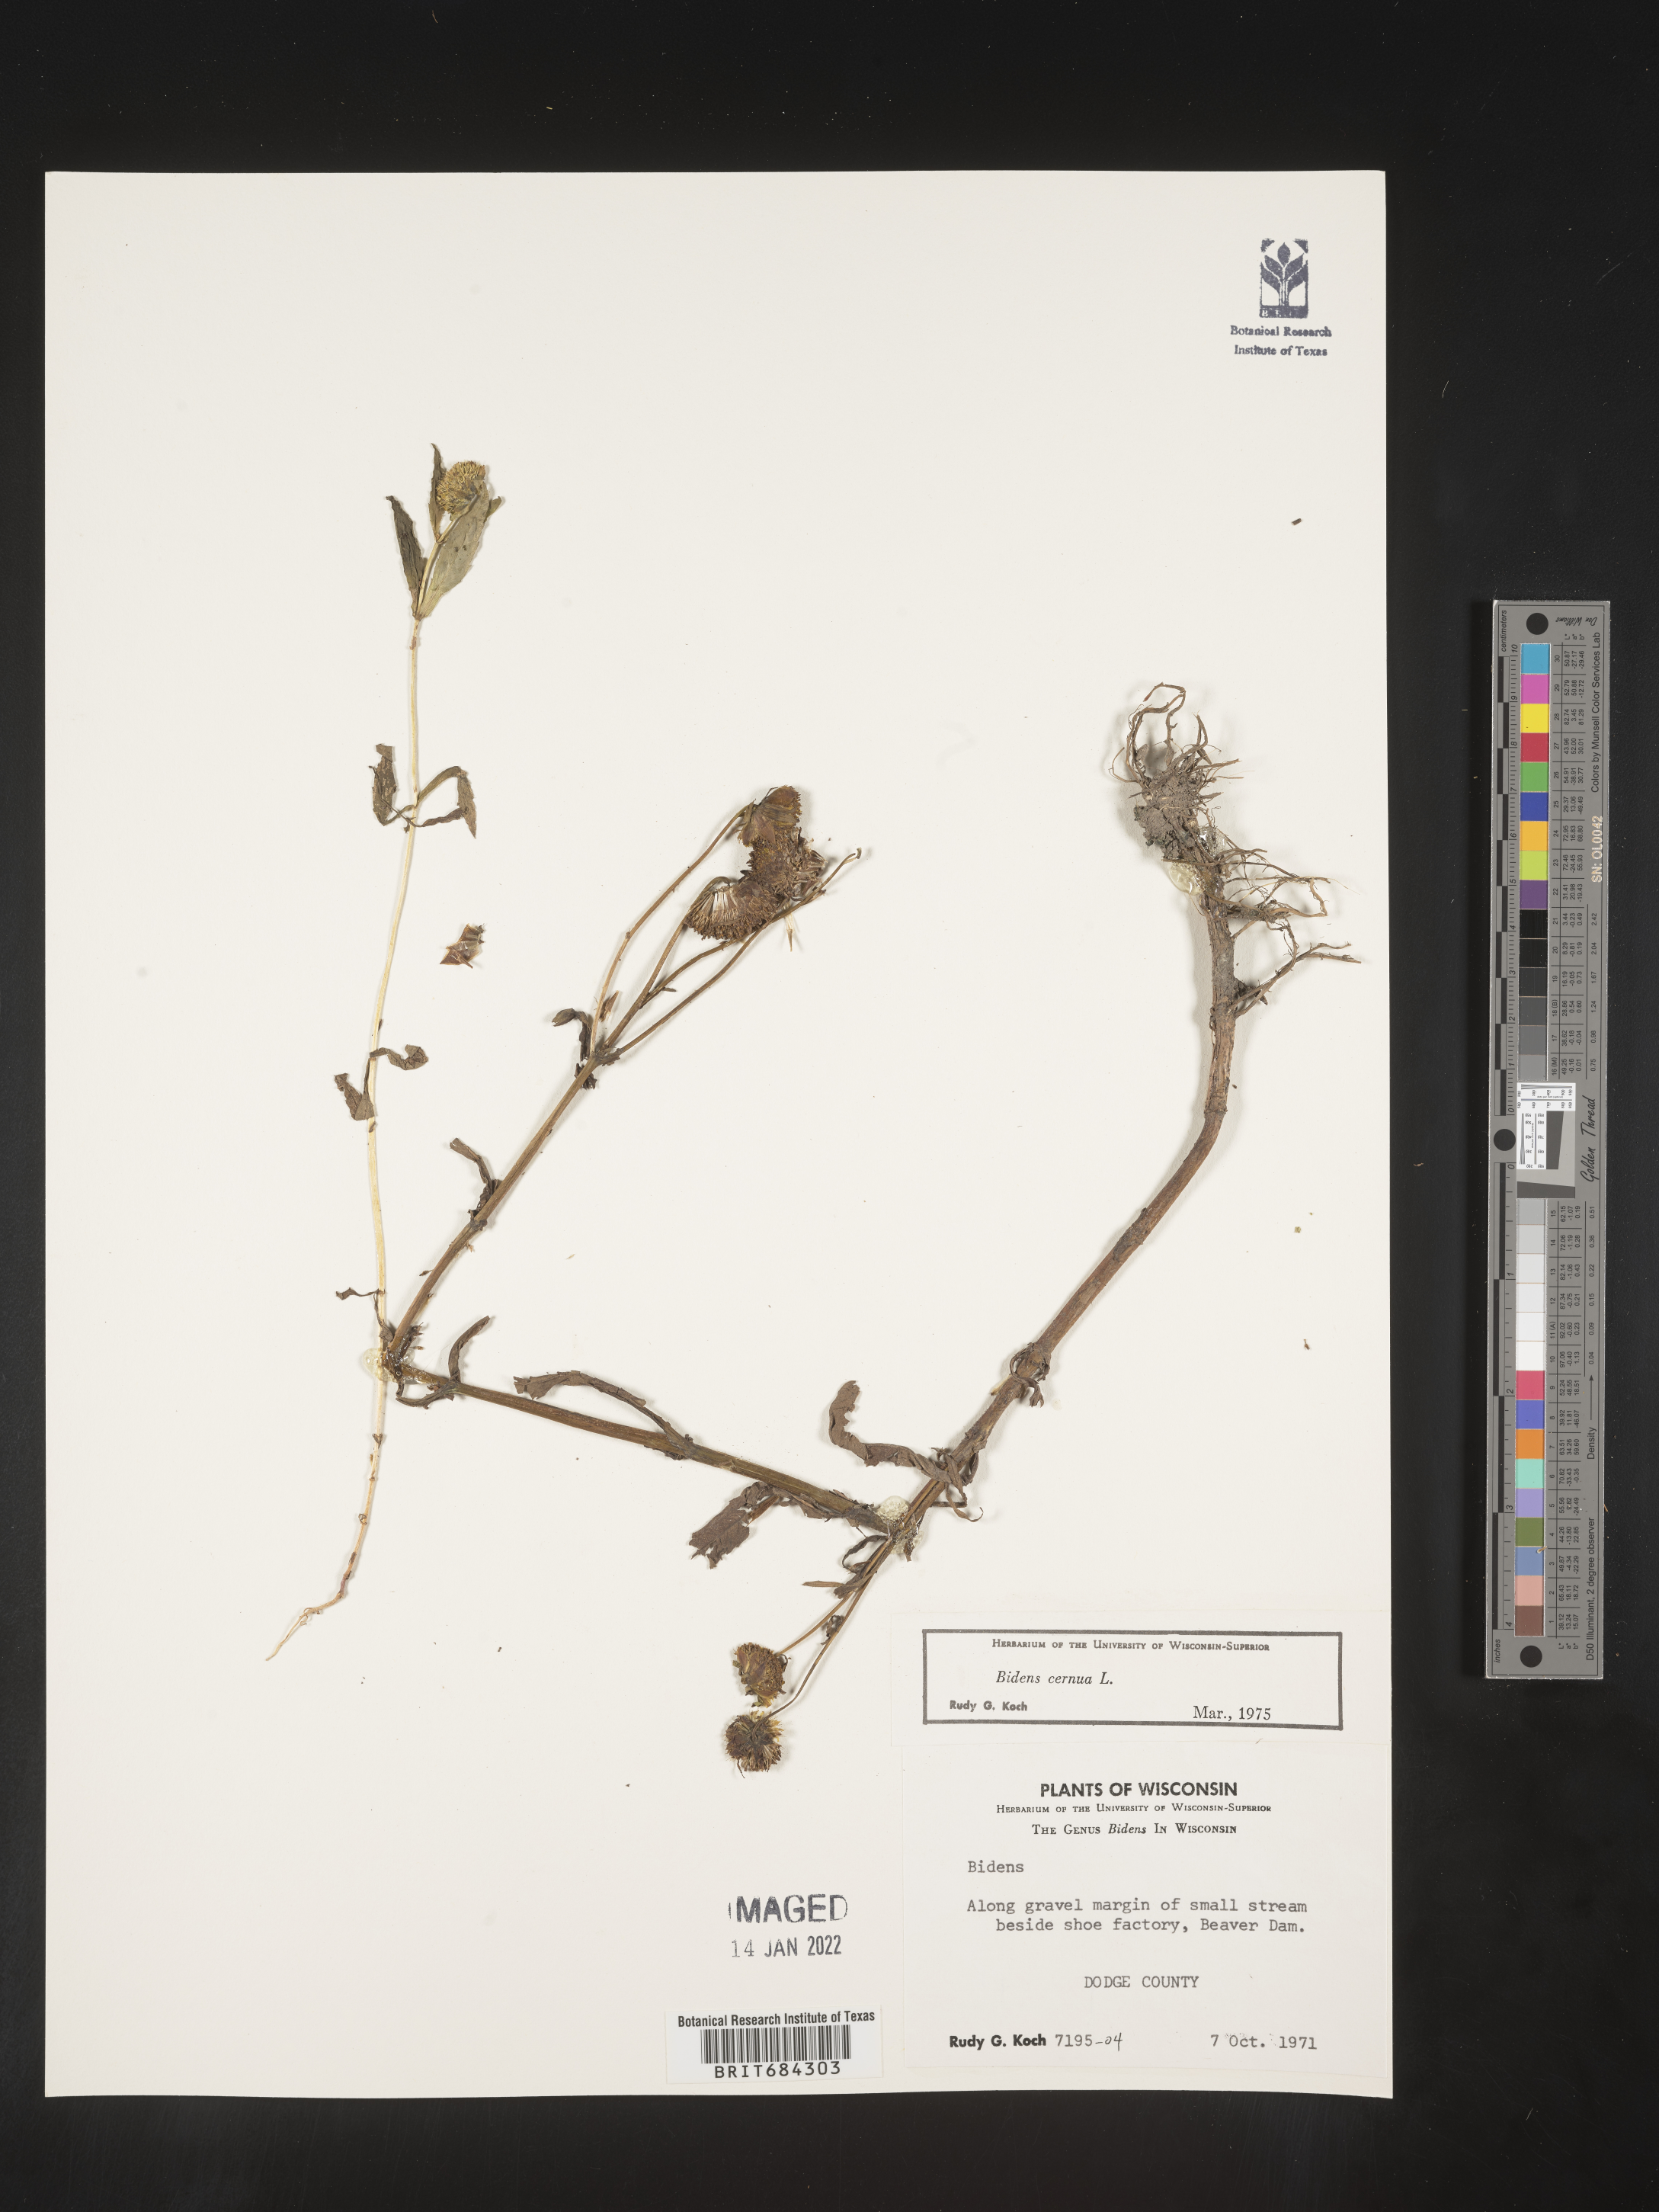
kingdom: Plantae
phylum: Tracheophyta
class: Magnoliopsida
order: Asterales
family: Asteraceae
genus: Bidens
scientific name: Bidens cernua
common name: Nodding bur-marigold
